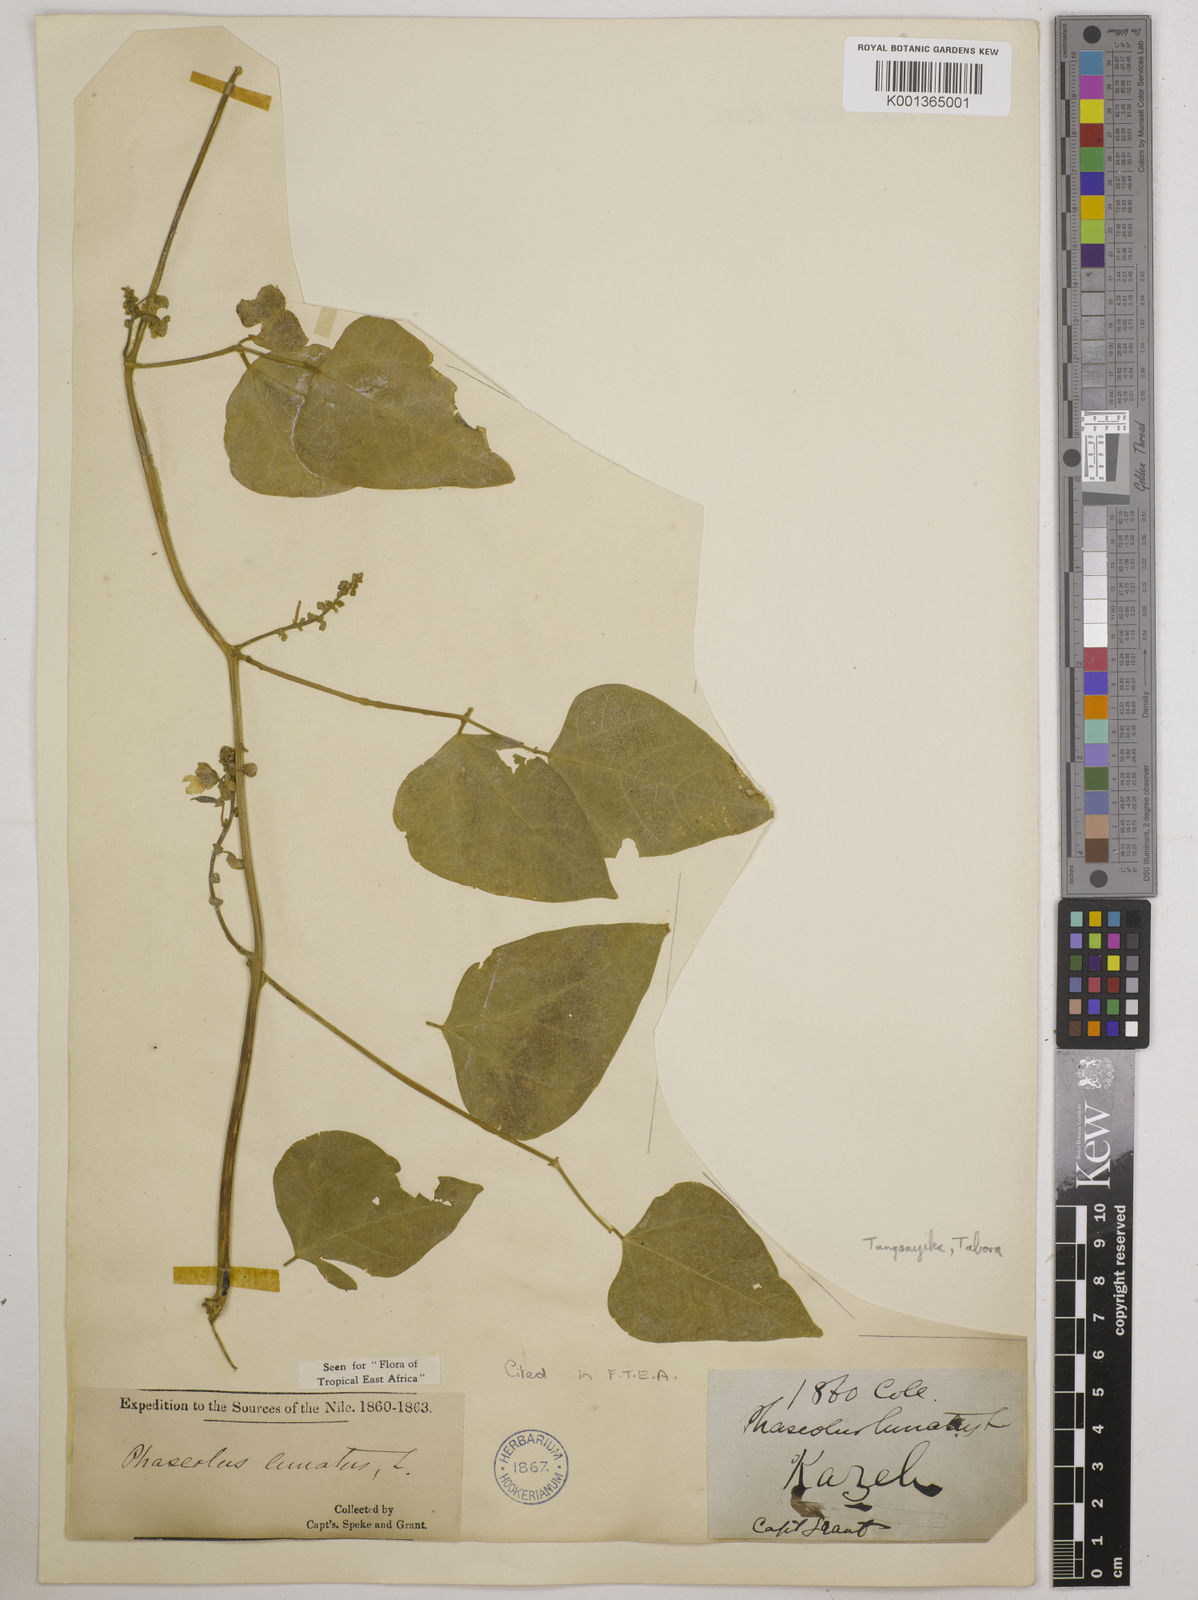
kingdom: Plantae
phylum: Tracheophyta
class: Magnoliopsida
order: Fabales
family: Fabaceae
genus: Phaseolus
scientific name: Phaseolus lunatus
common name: Sieva bean
